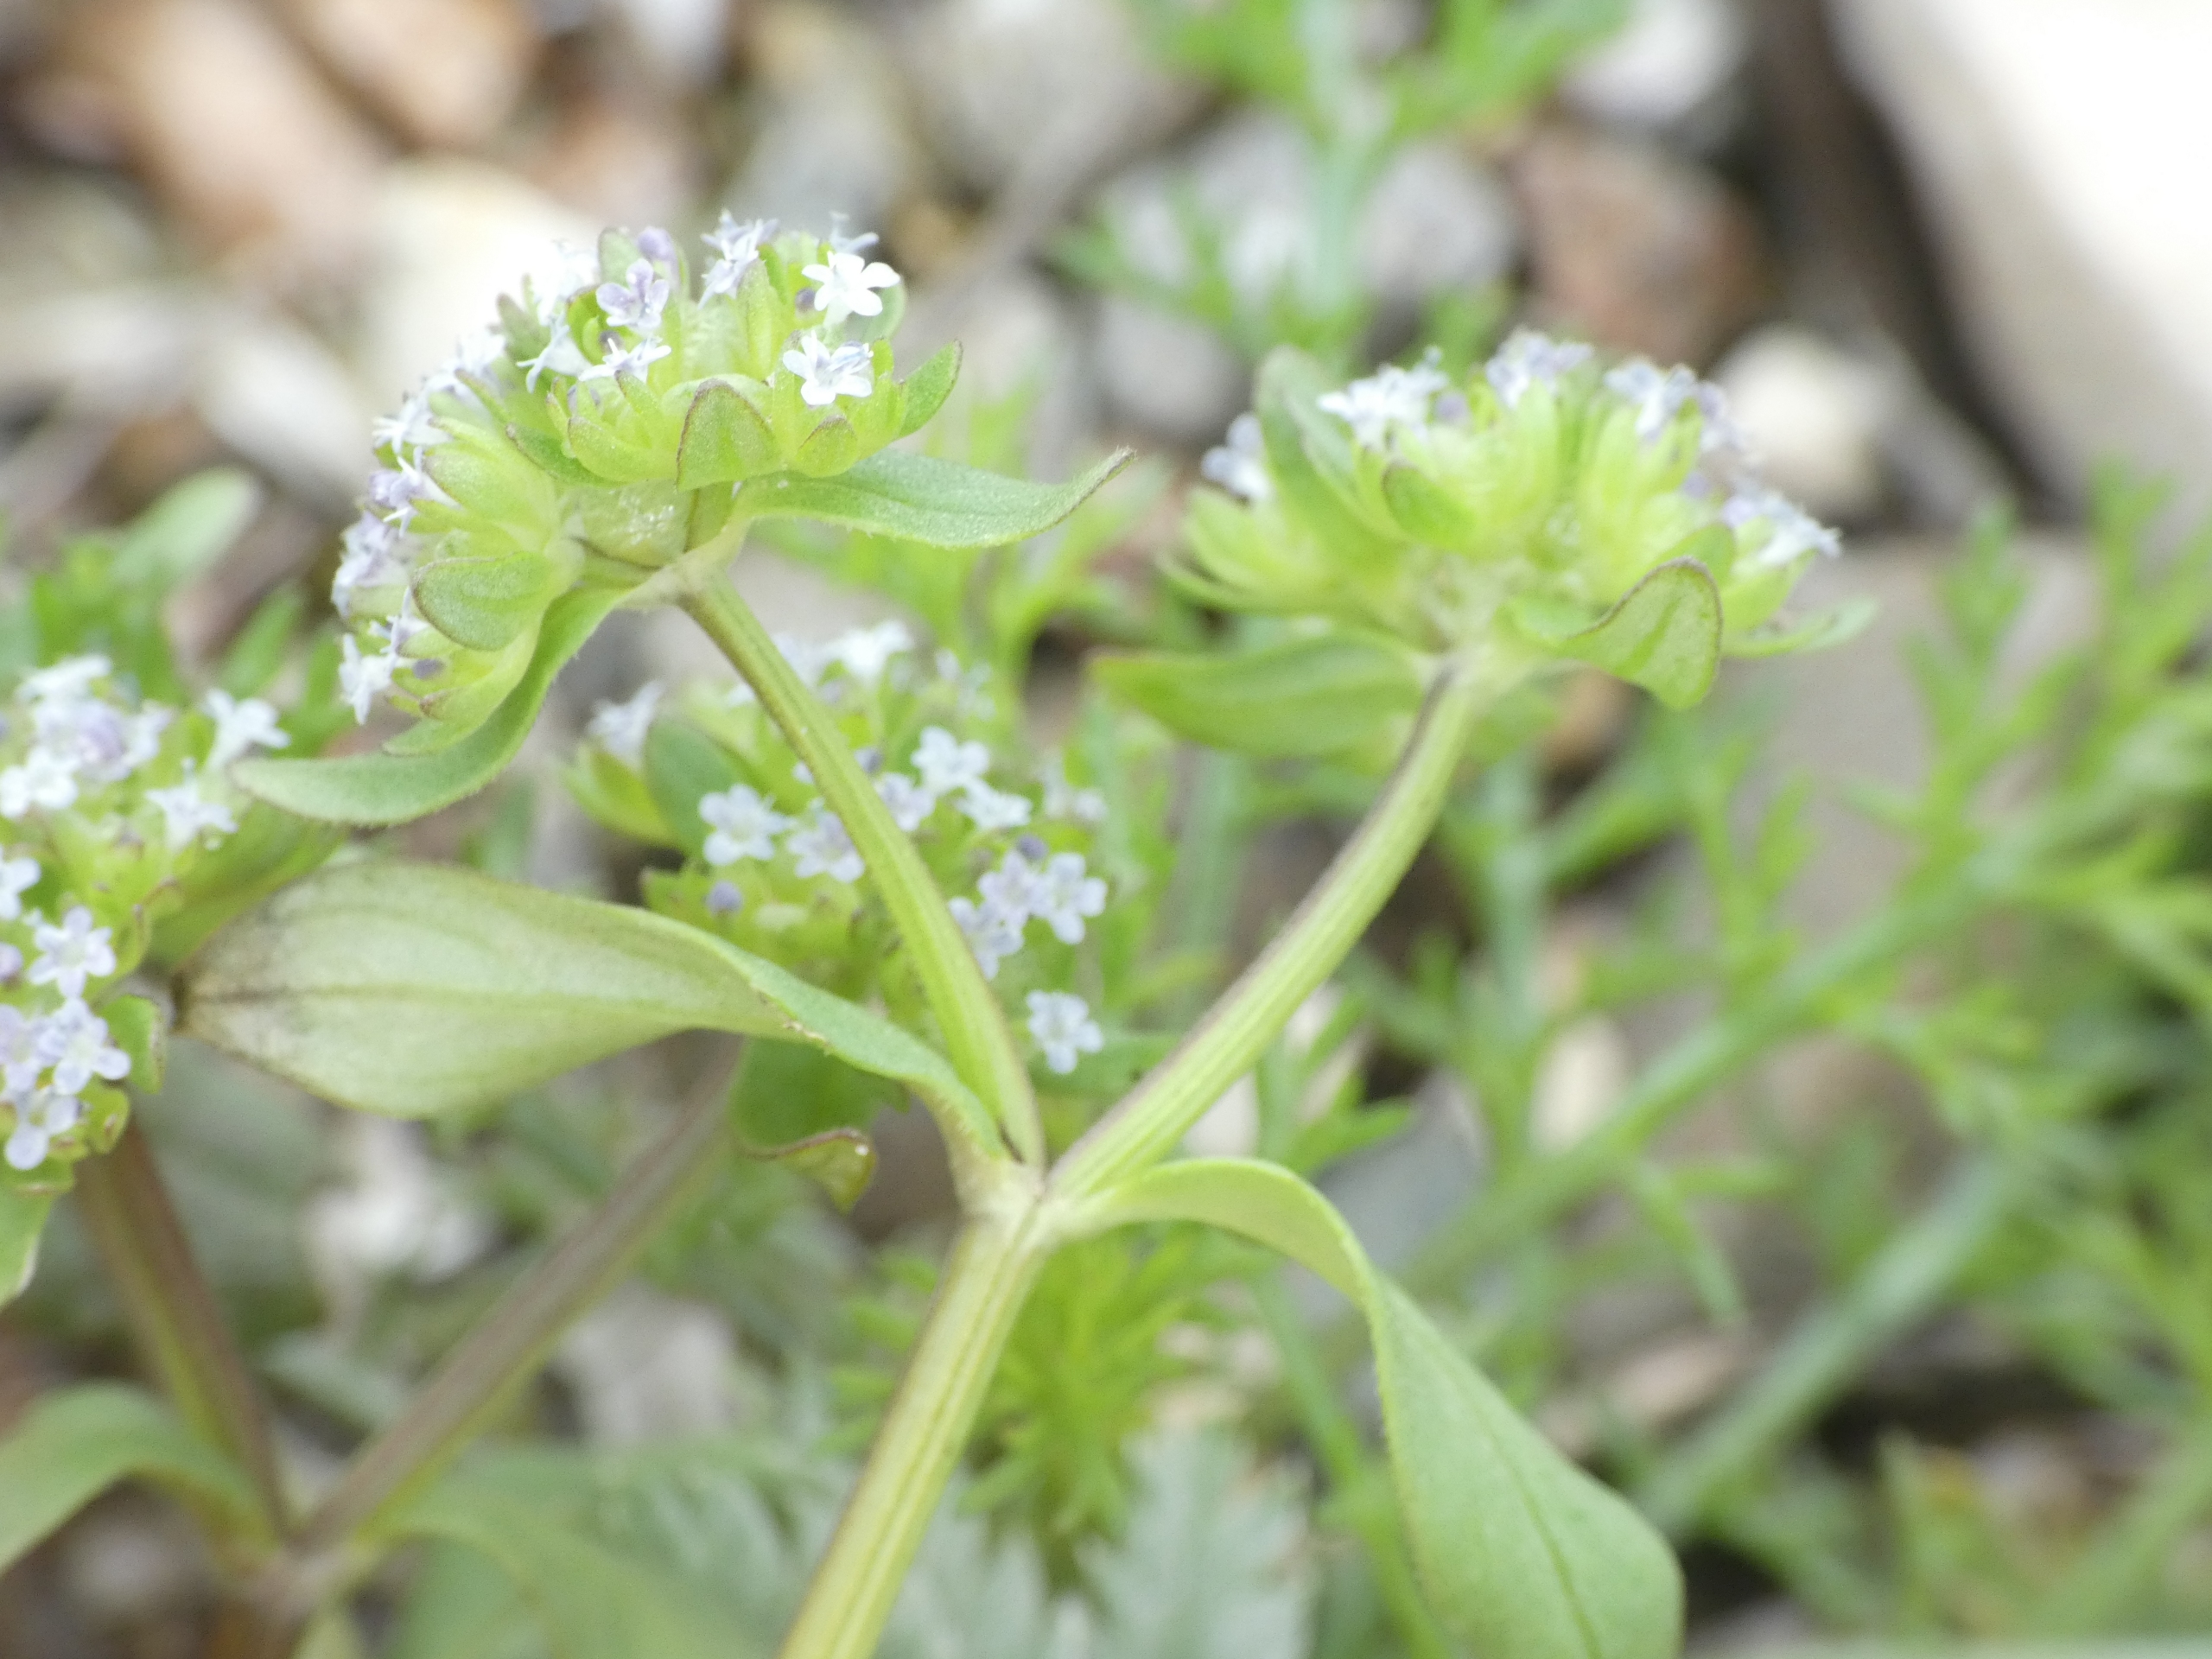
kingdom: Plantae
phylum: Tracheophyta
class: Magnoliopsida
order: Dipsacales
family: Caprifoliaceae
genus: Valerianella
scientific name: Valerianella locusta
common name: Tandfri vårsalat
